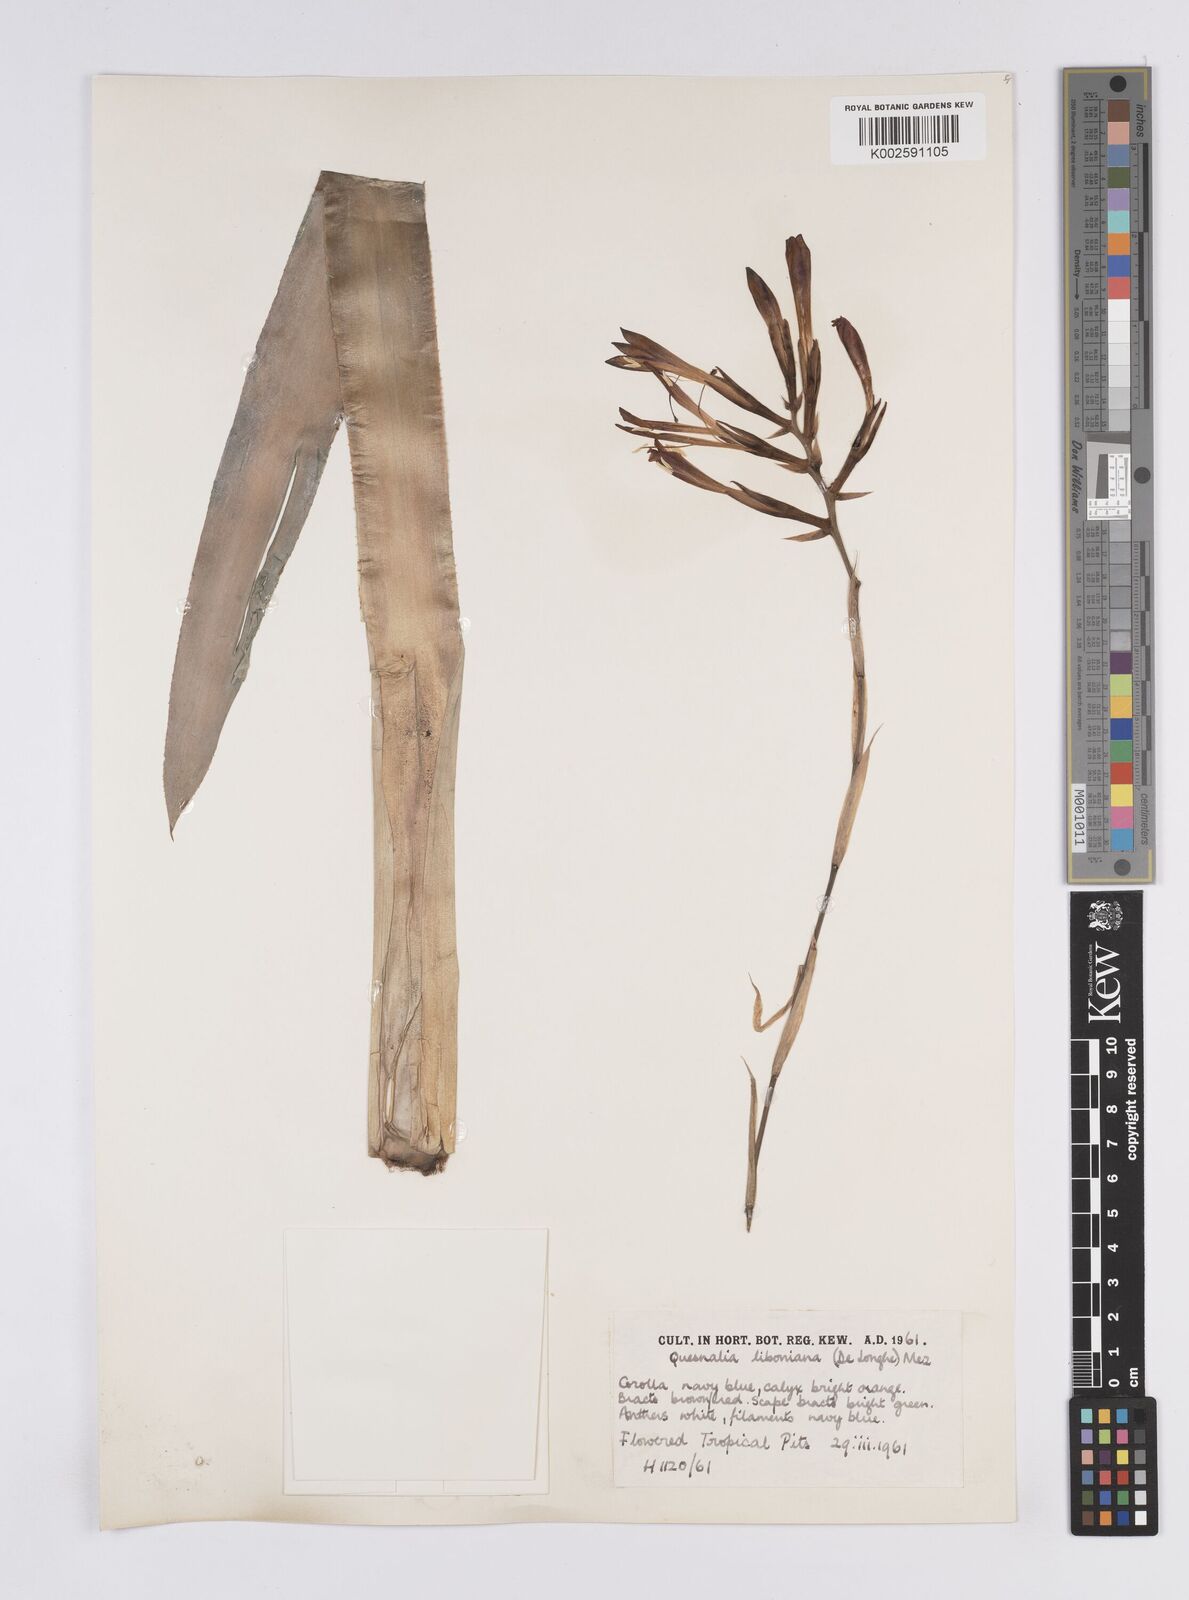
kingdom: Plantae
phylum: Tracheophyta
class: Liliopsida
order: Poales
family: Bromeliaceae
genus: Quesnelia
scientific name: Quesnelia liboniana
